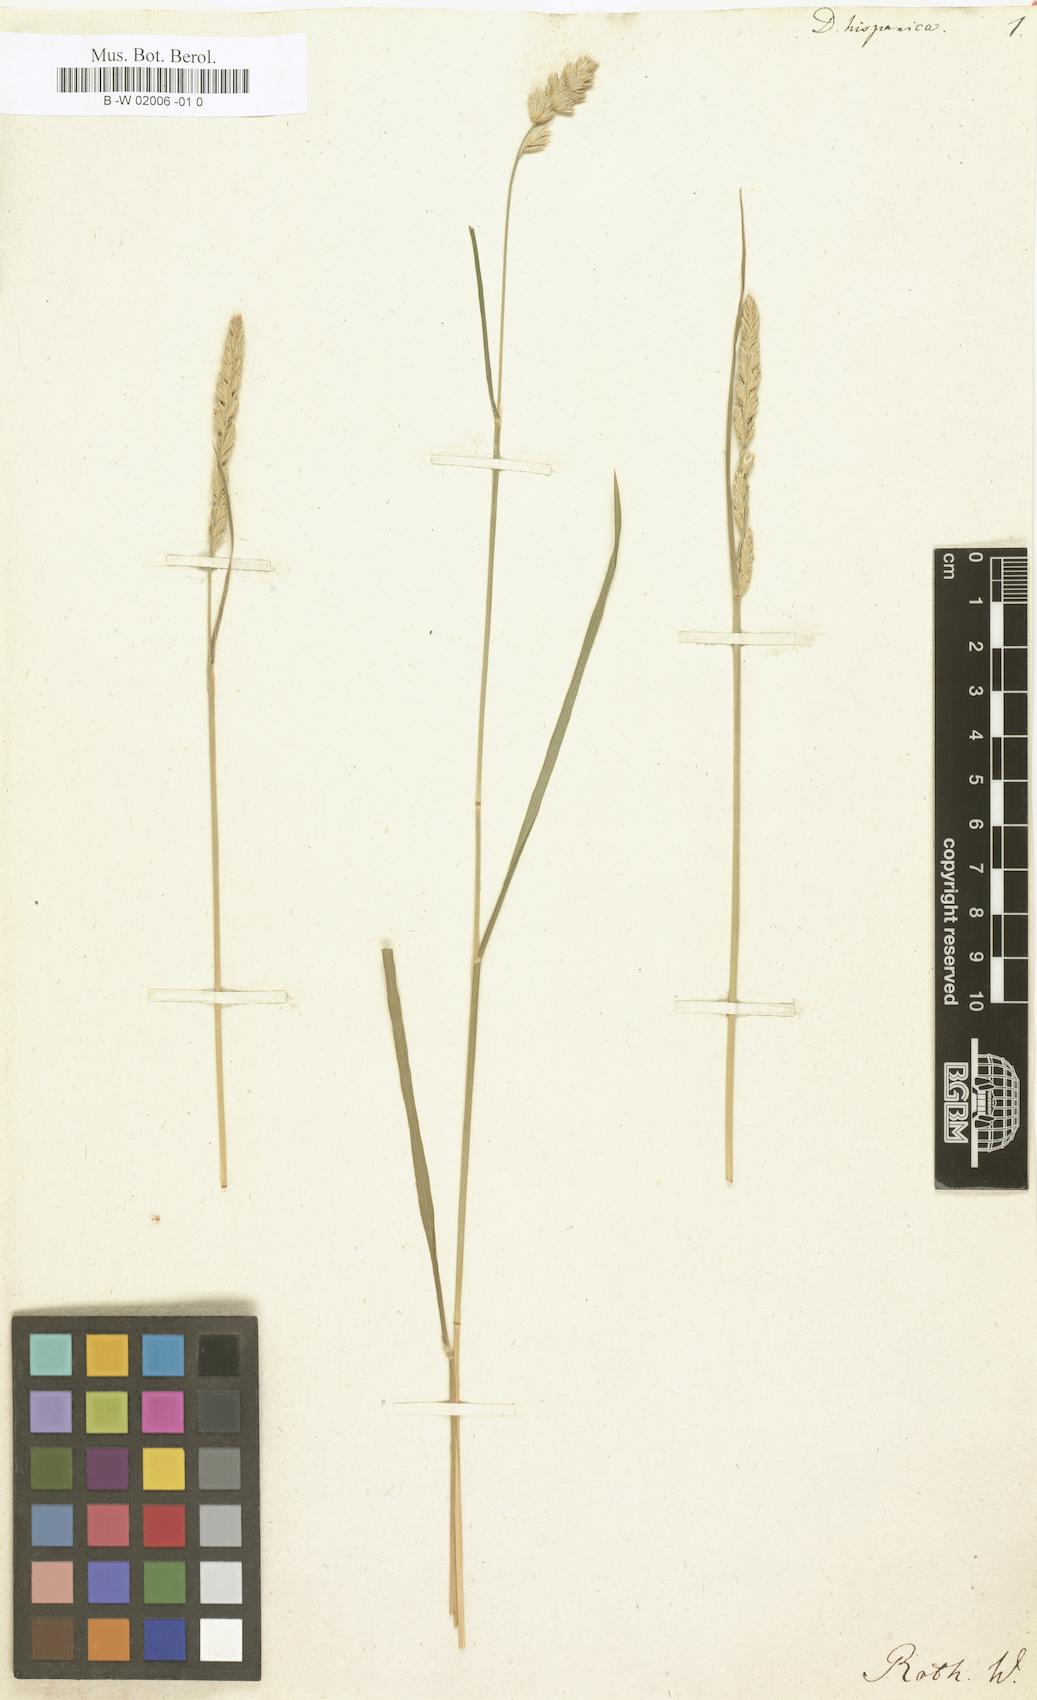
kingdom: Plantae
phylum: Tracheophyta
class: Liliopsida
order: Poales
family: Poaceae
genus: Dactylis
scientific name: Dactylis glomerata
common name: Orchardgrass
